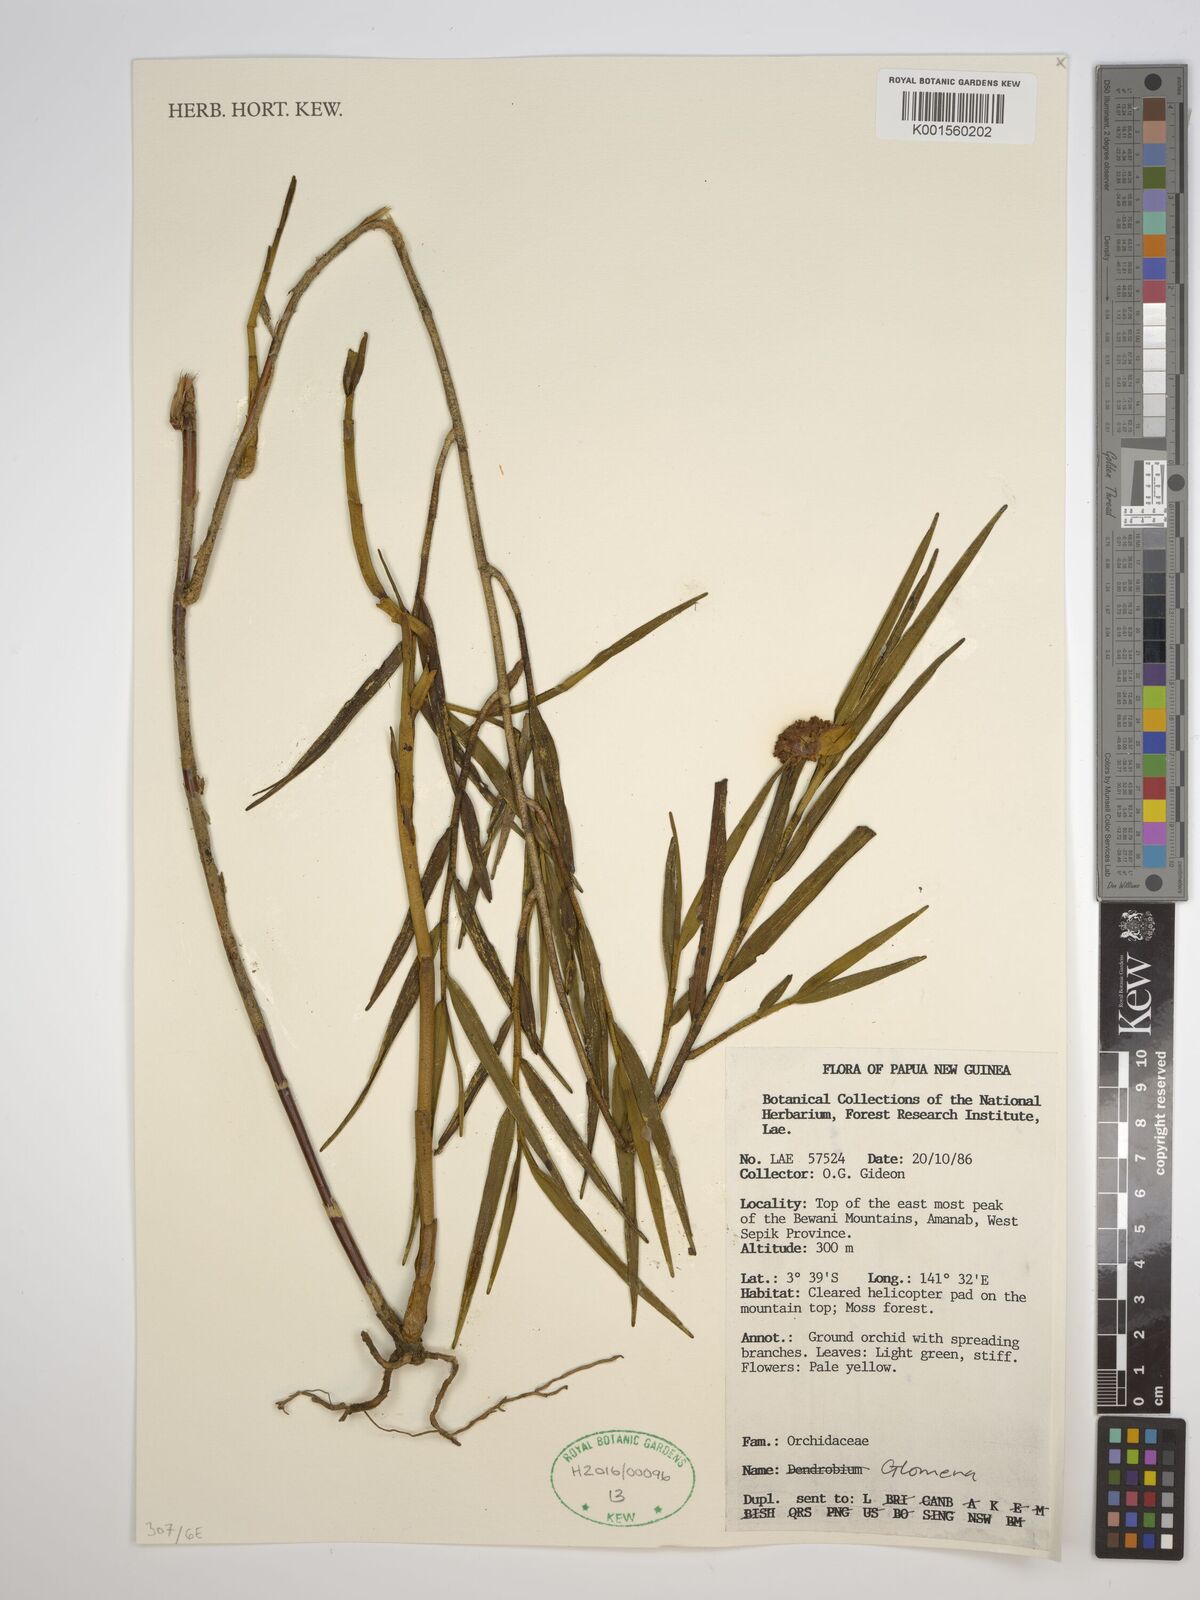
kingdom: Plantae
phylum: Tracheophyta
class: Liliopsida
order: Asparagales
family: Orchidaceae
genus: Glomera
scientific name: Glomera
